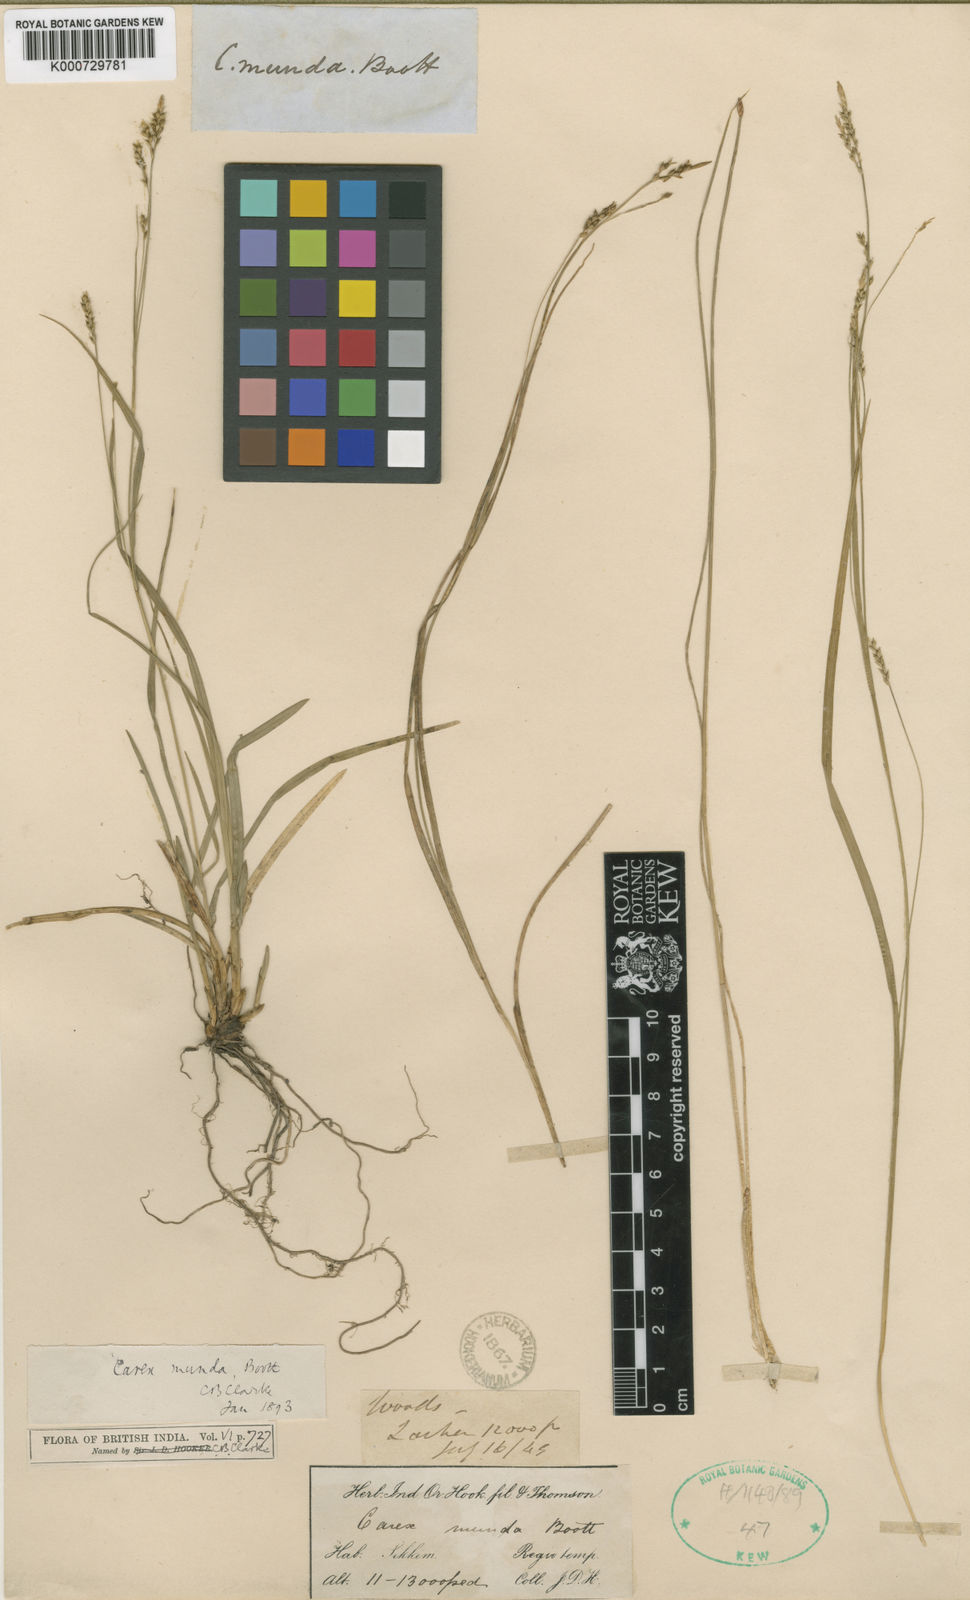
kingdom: Plantae
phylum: Tracheophyta
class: Liliopsida
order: Poales
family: Cyperaceae
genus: Carex
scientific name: Carex munda
